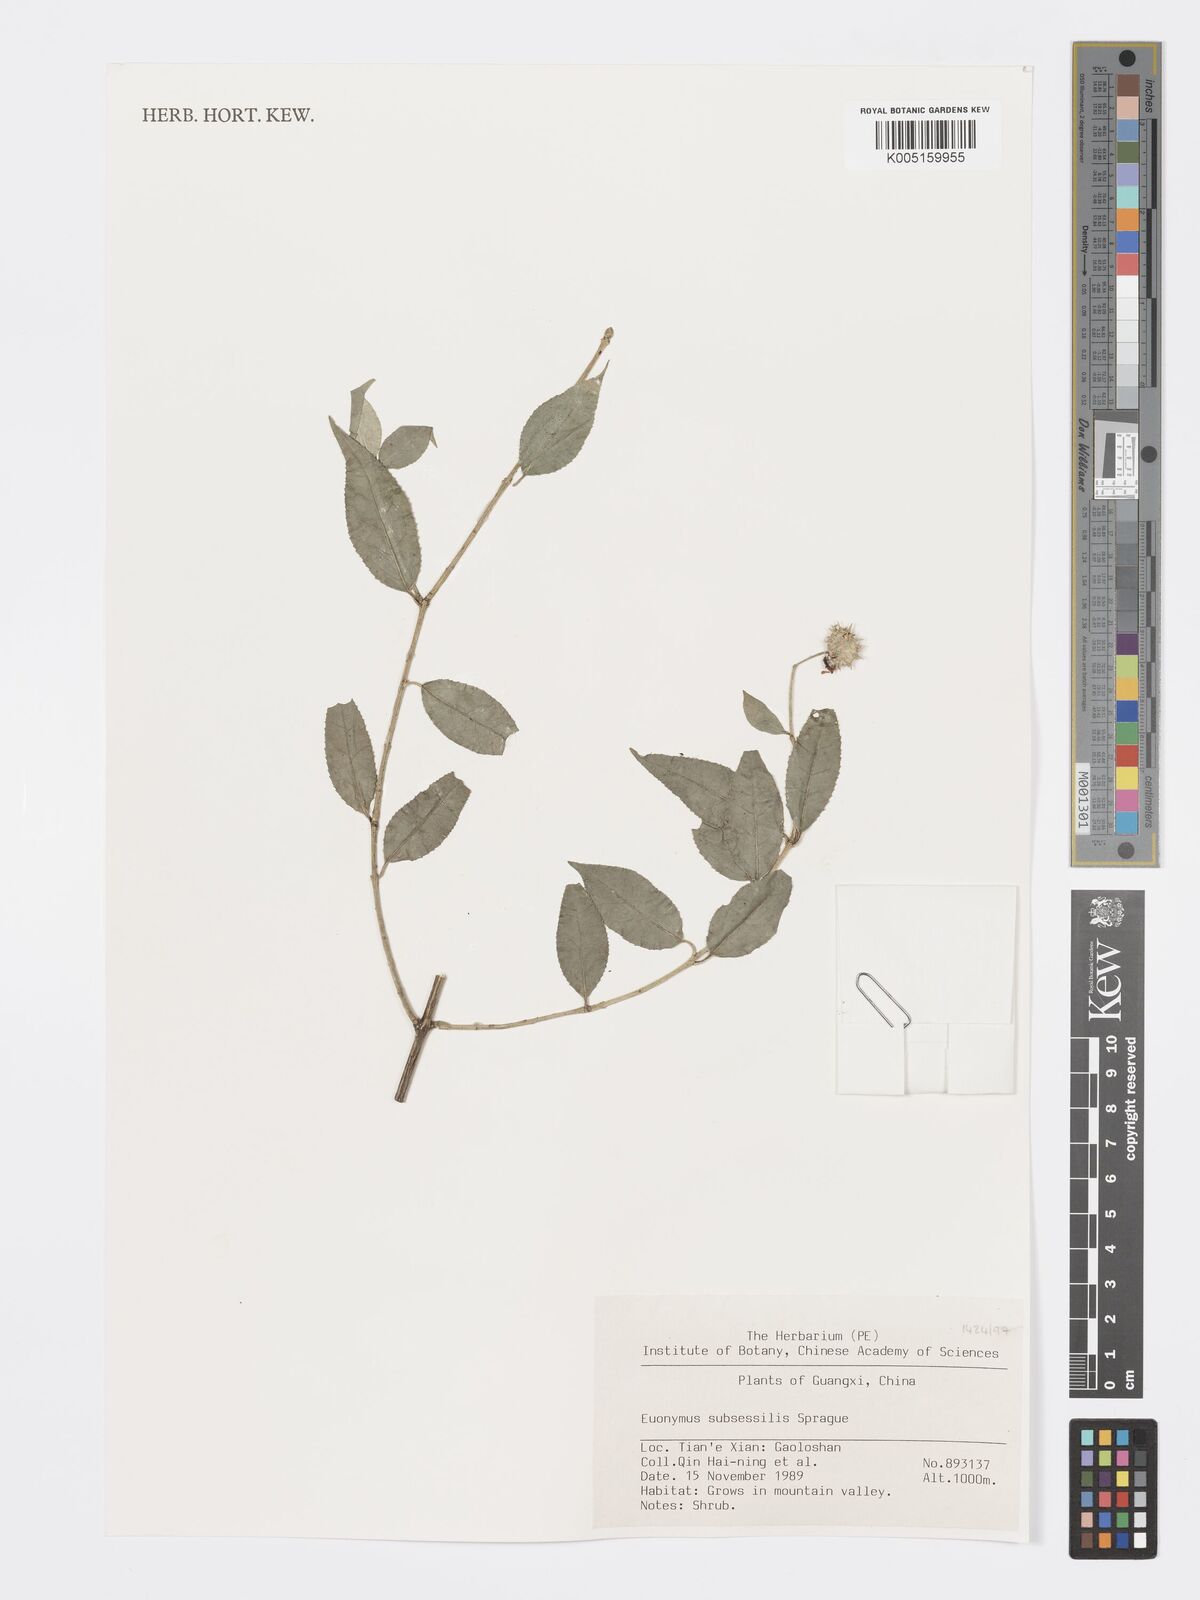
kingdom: Plantae
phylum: Tracheophyta
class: Magnoliopsida
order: Celastrales
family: Celastraceae
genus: Euonymus
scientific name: Euonymus echinatus
